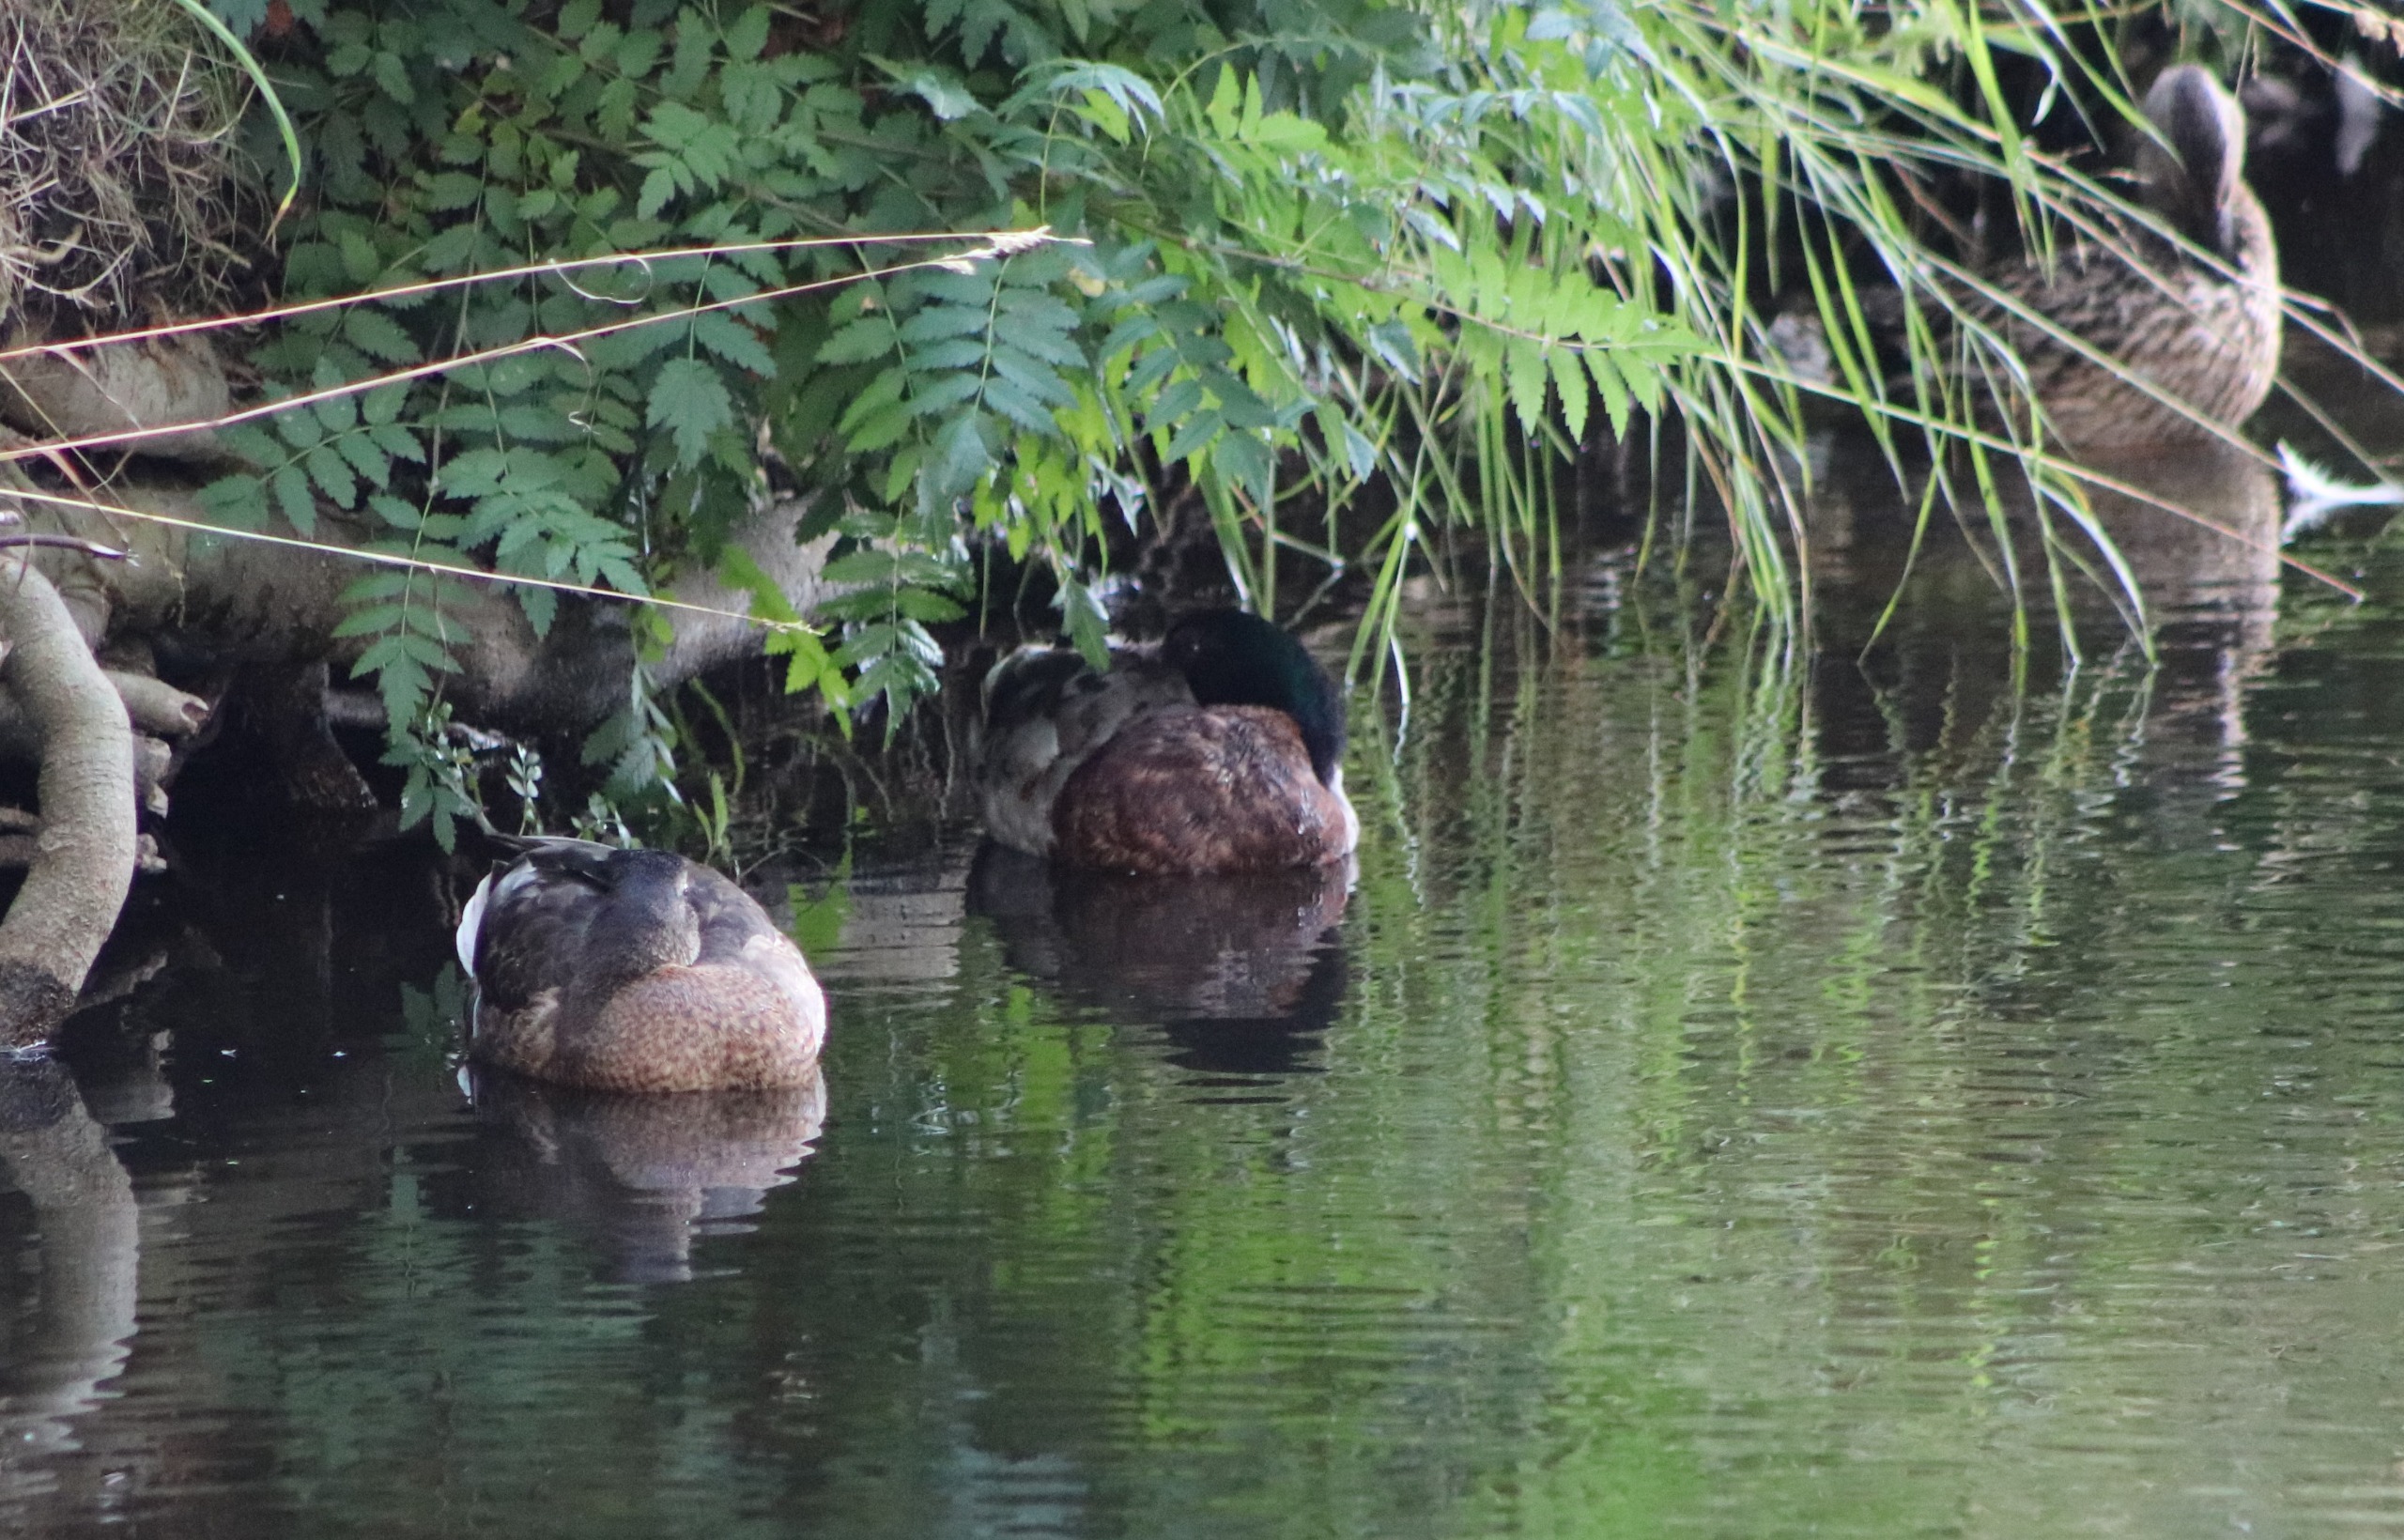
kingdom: Animalia
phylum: Chordata
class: Aves
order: Anseriformes
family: Anatidae
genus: Anas
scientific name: Anas platyrhynchos
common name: Gråand
